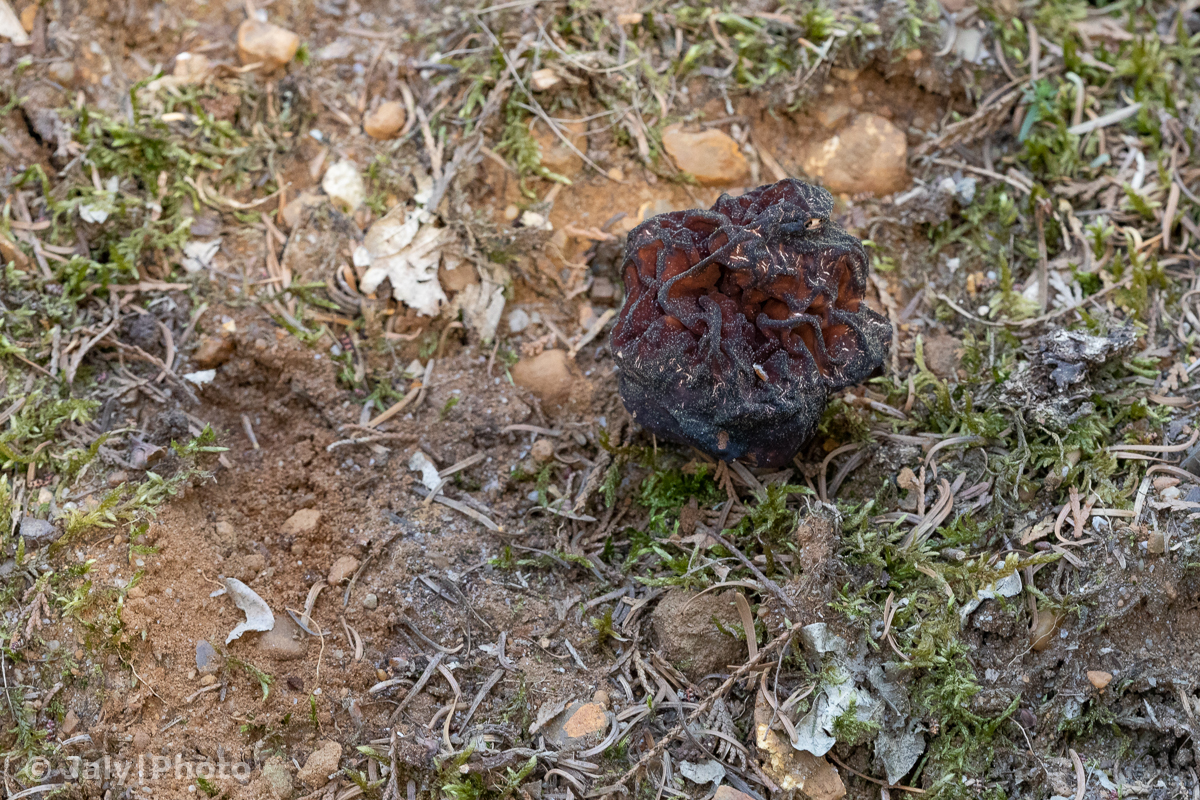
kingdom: Fungi
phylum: Ascomycota
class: Pezizomycetes
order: Pezizales
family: Discinaceae
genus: Gyromitra
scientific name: Gyromitra esculenta
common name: ægte stenmorkel
